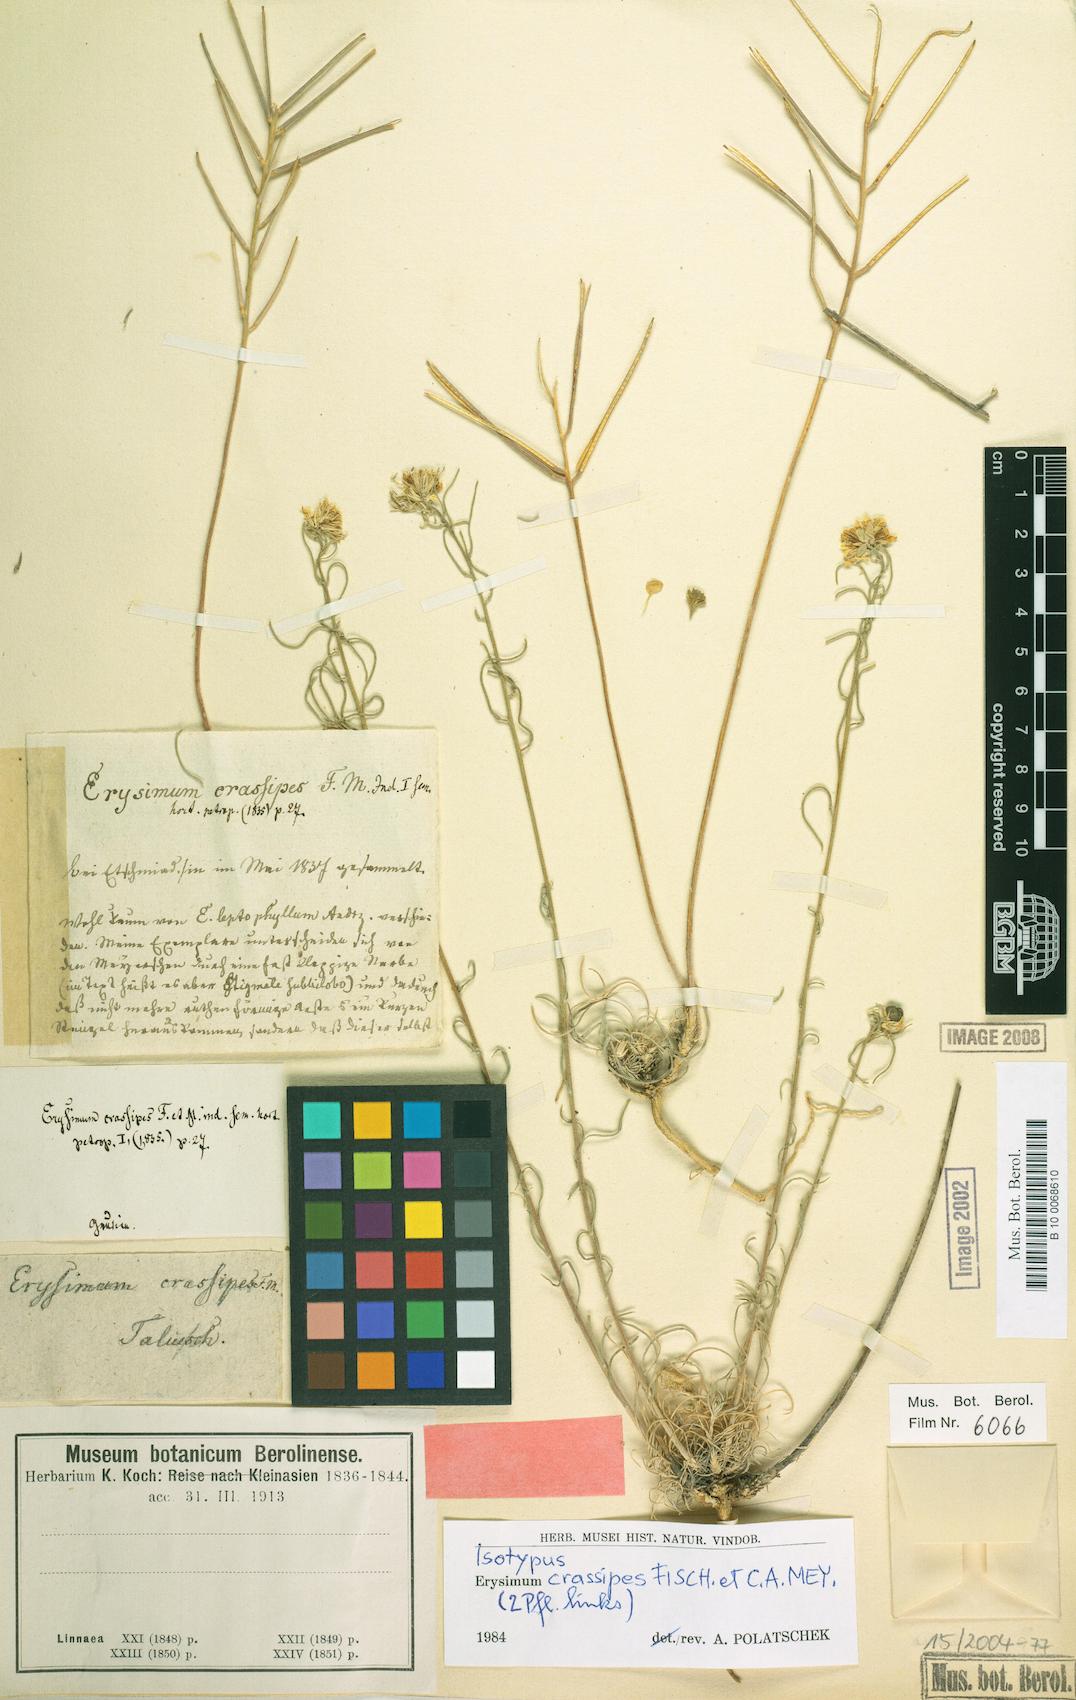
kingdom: Plantae
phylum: Tracheophyta
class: Magnoliopsida
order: Brassicales
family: Brassicaceae
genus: Erysimum
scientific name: Erysimum crassipes
